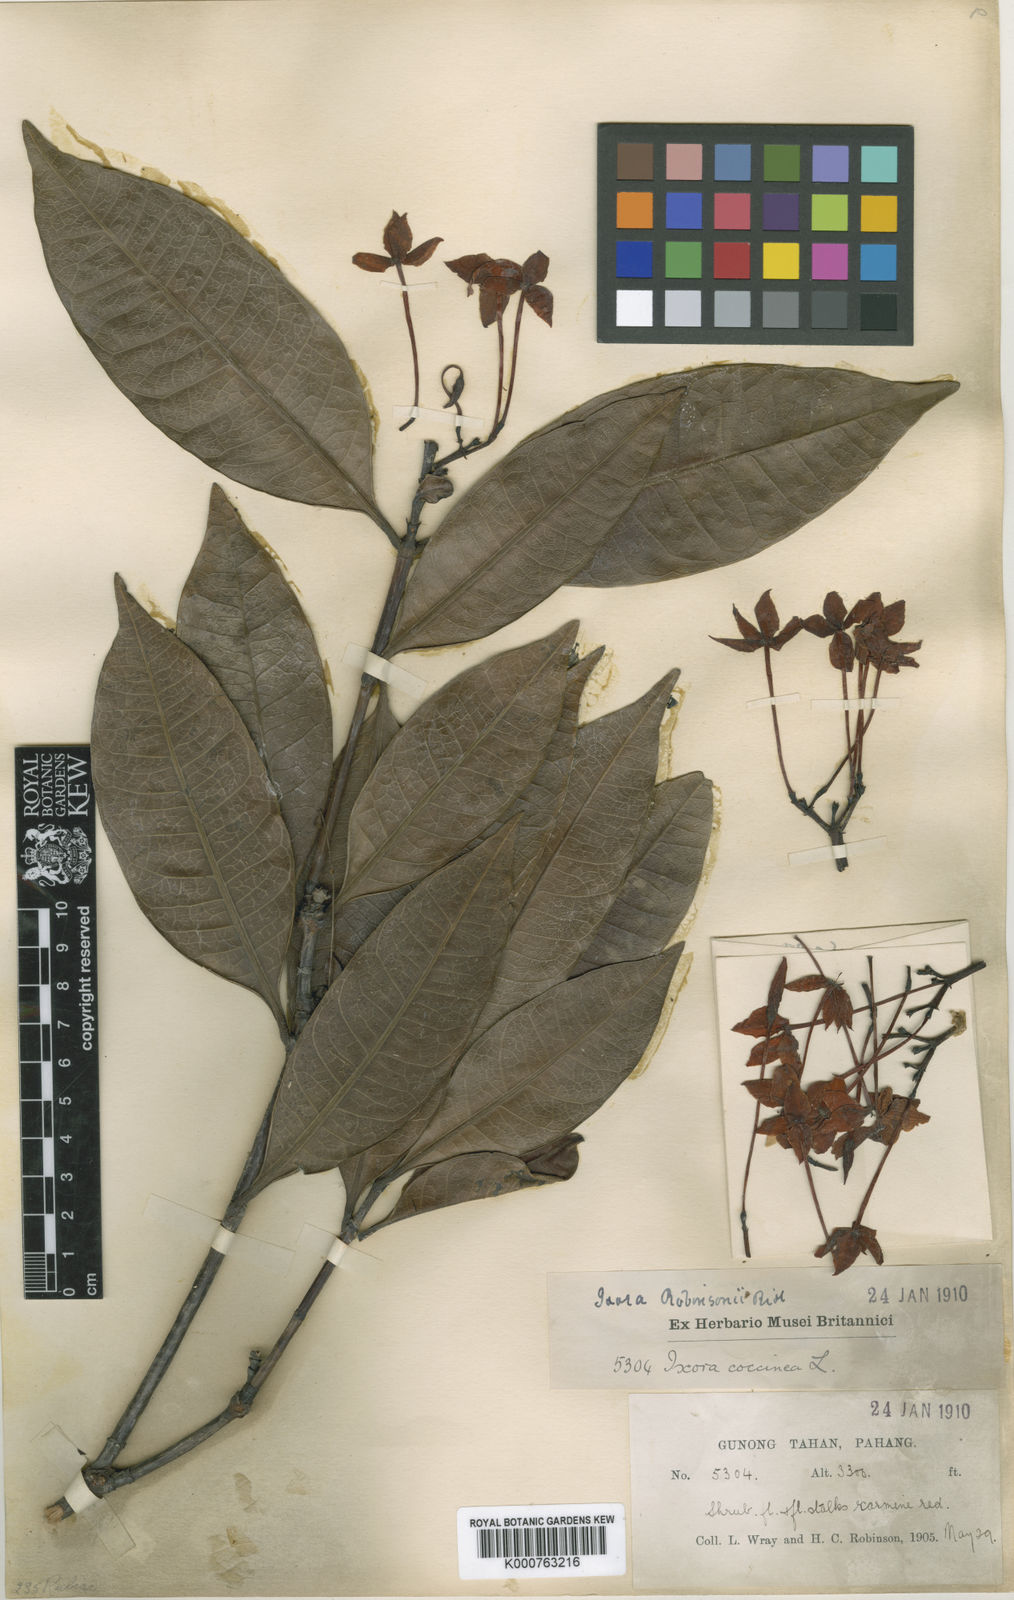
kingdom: Plantae
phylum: Tracheophyta
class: Magnoliopsida
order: Gentianales
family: Rubiaceae
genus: Ixora
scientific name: Ixora robinsonii
